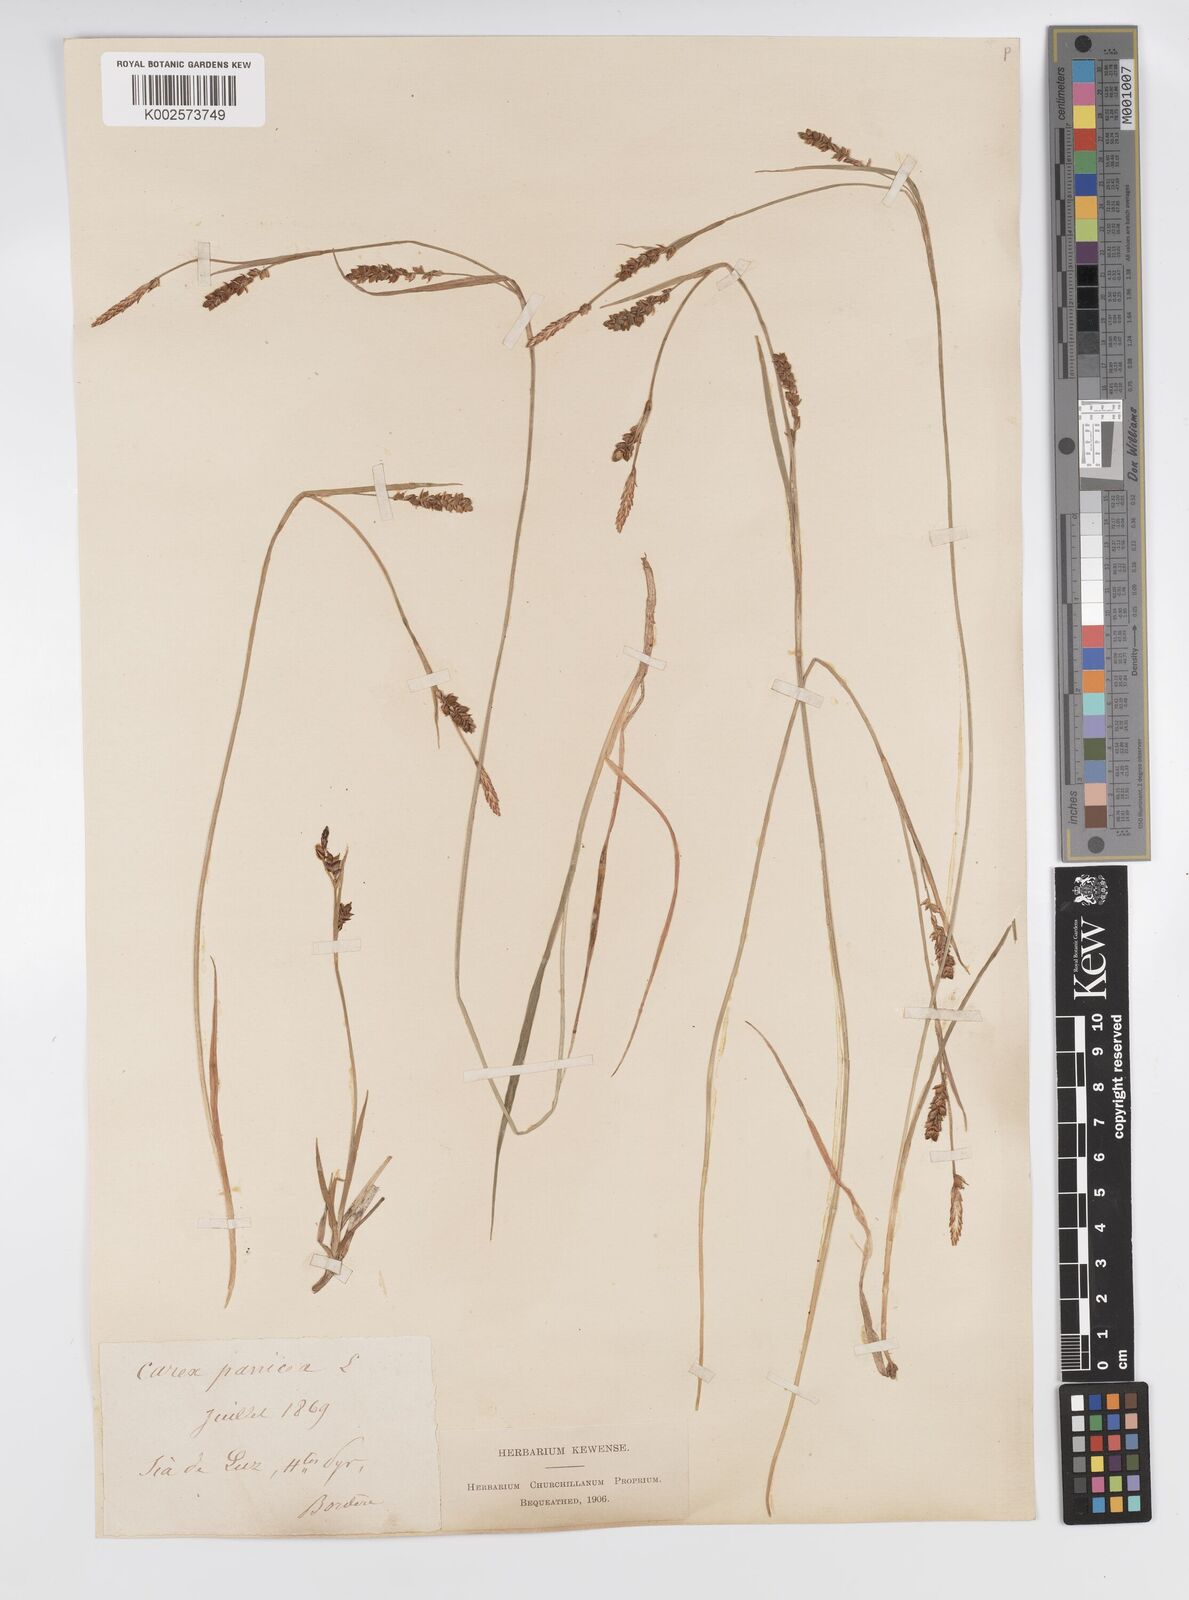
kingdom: Plantae
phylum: Tracheophyta
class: Liliopsida
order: Poales
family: Cyperaceae
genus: Carex
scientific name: Carex panicea
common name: Carnation sedge
